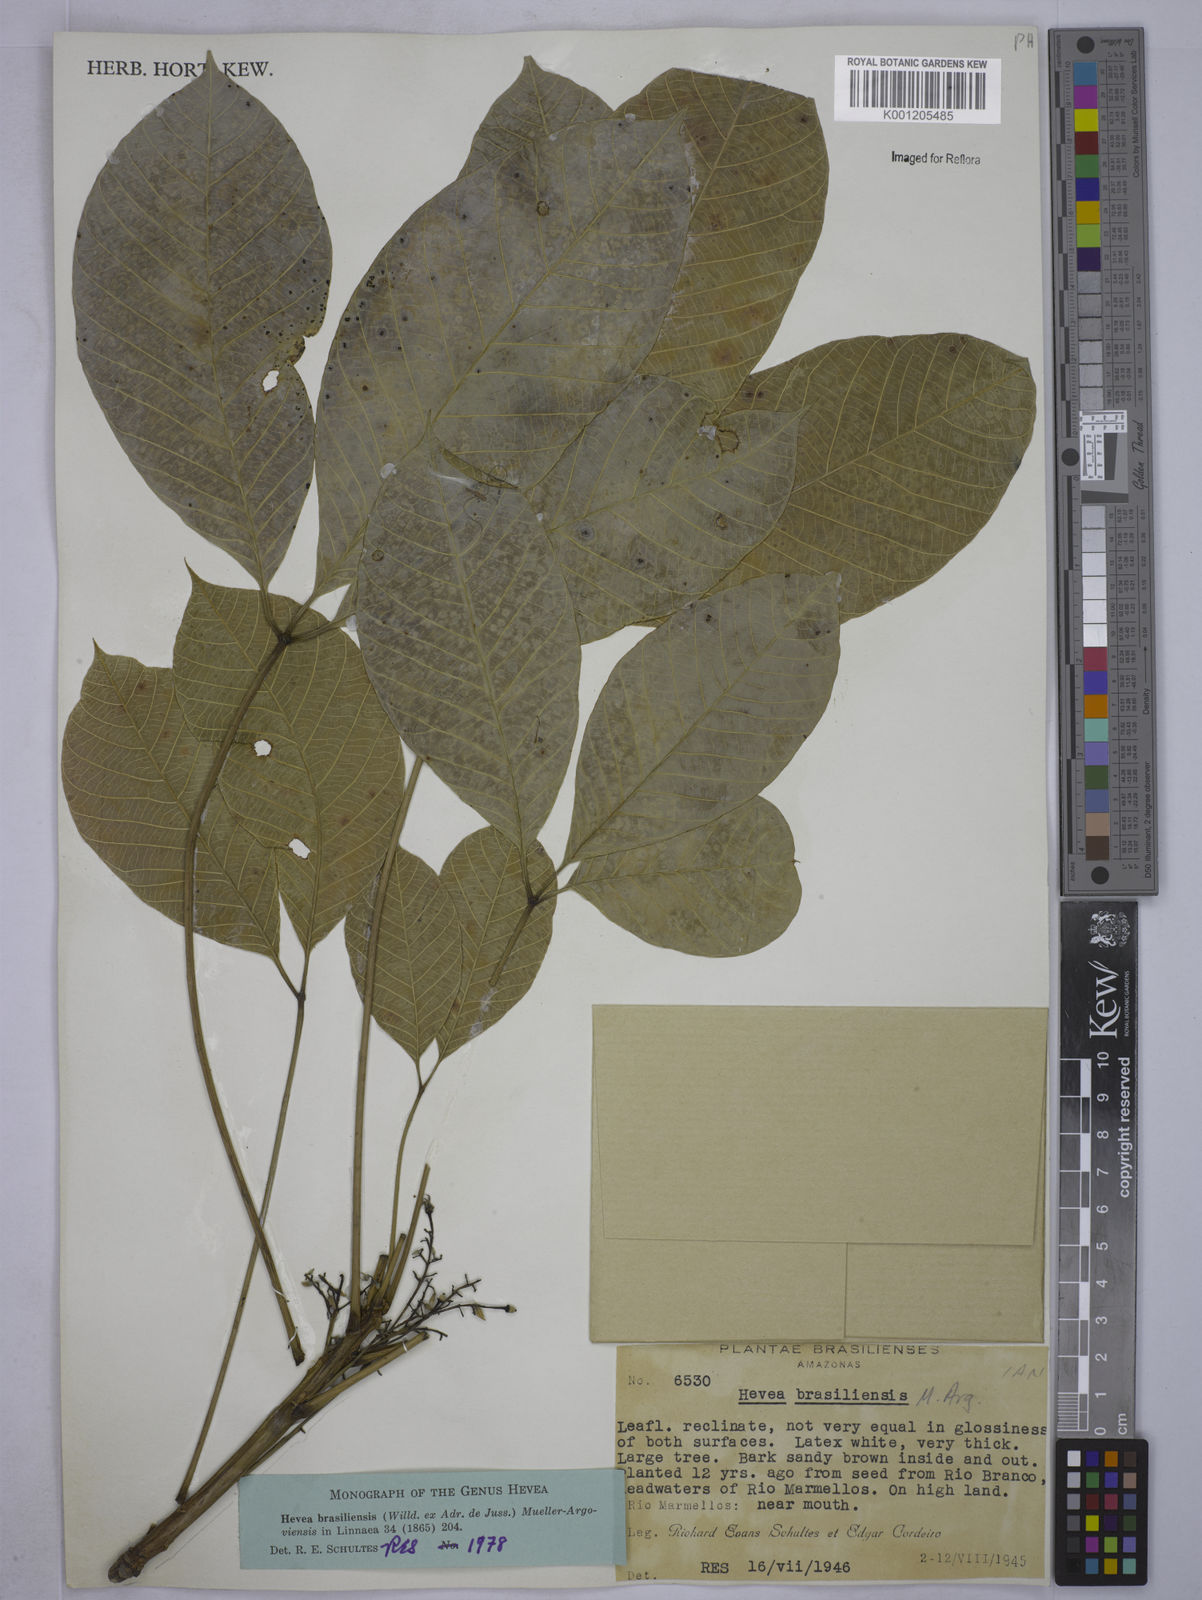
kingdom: Plantae
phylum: Tracheophyta
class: Magnoliopsida
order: Malpighiales
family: Euphorbiaceae
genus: Hevea
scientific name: Hevea
